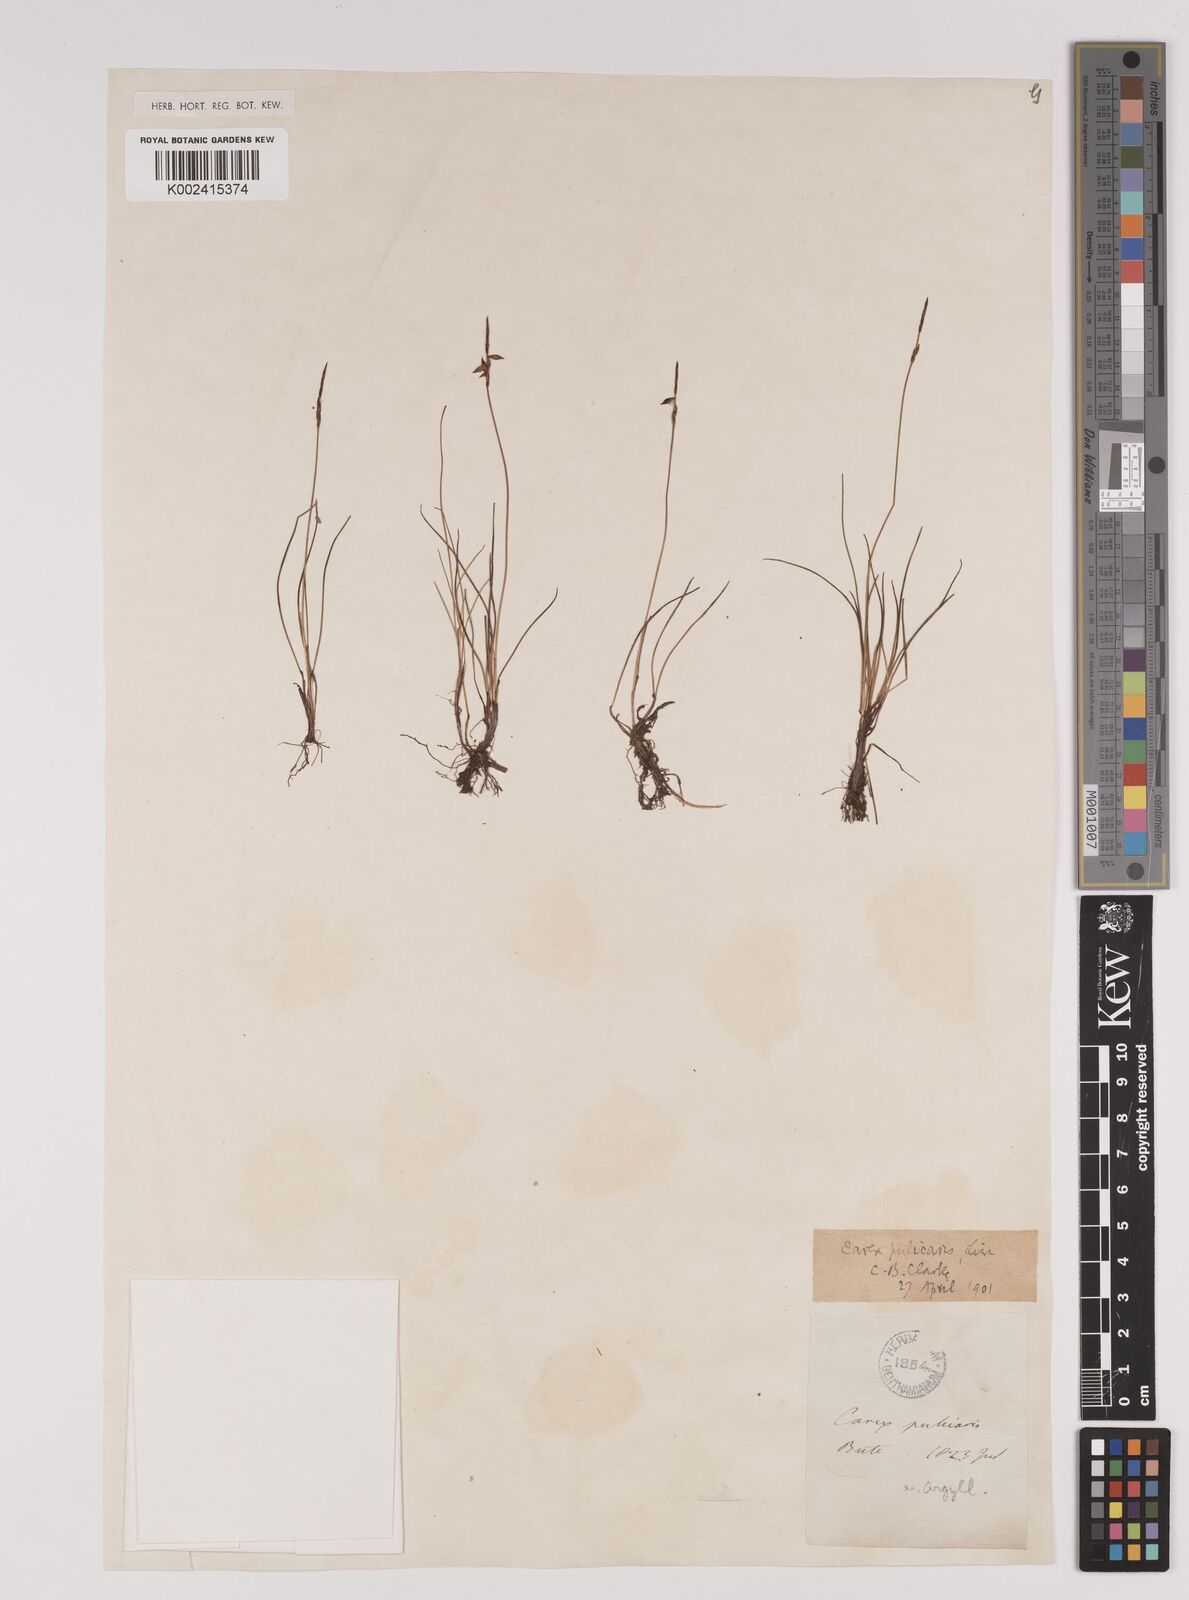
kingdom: Plantae
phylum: Tracheophyta
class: Liliopsida
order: Poales
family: Cyperaceae
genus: Carex
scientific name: Carex pulicaris
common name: Flea sedge
